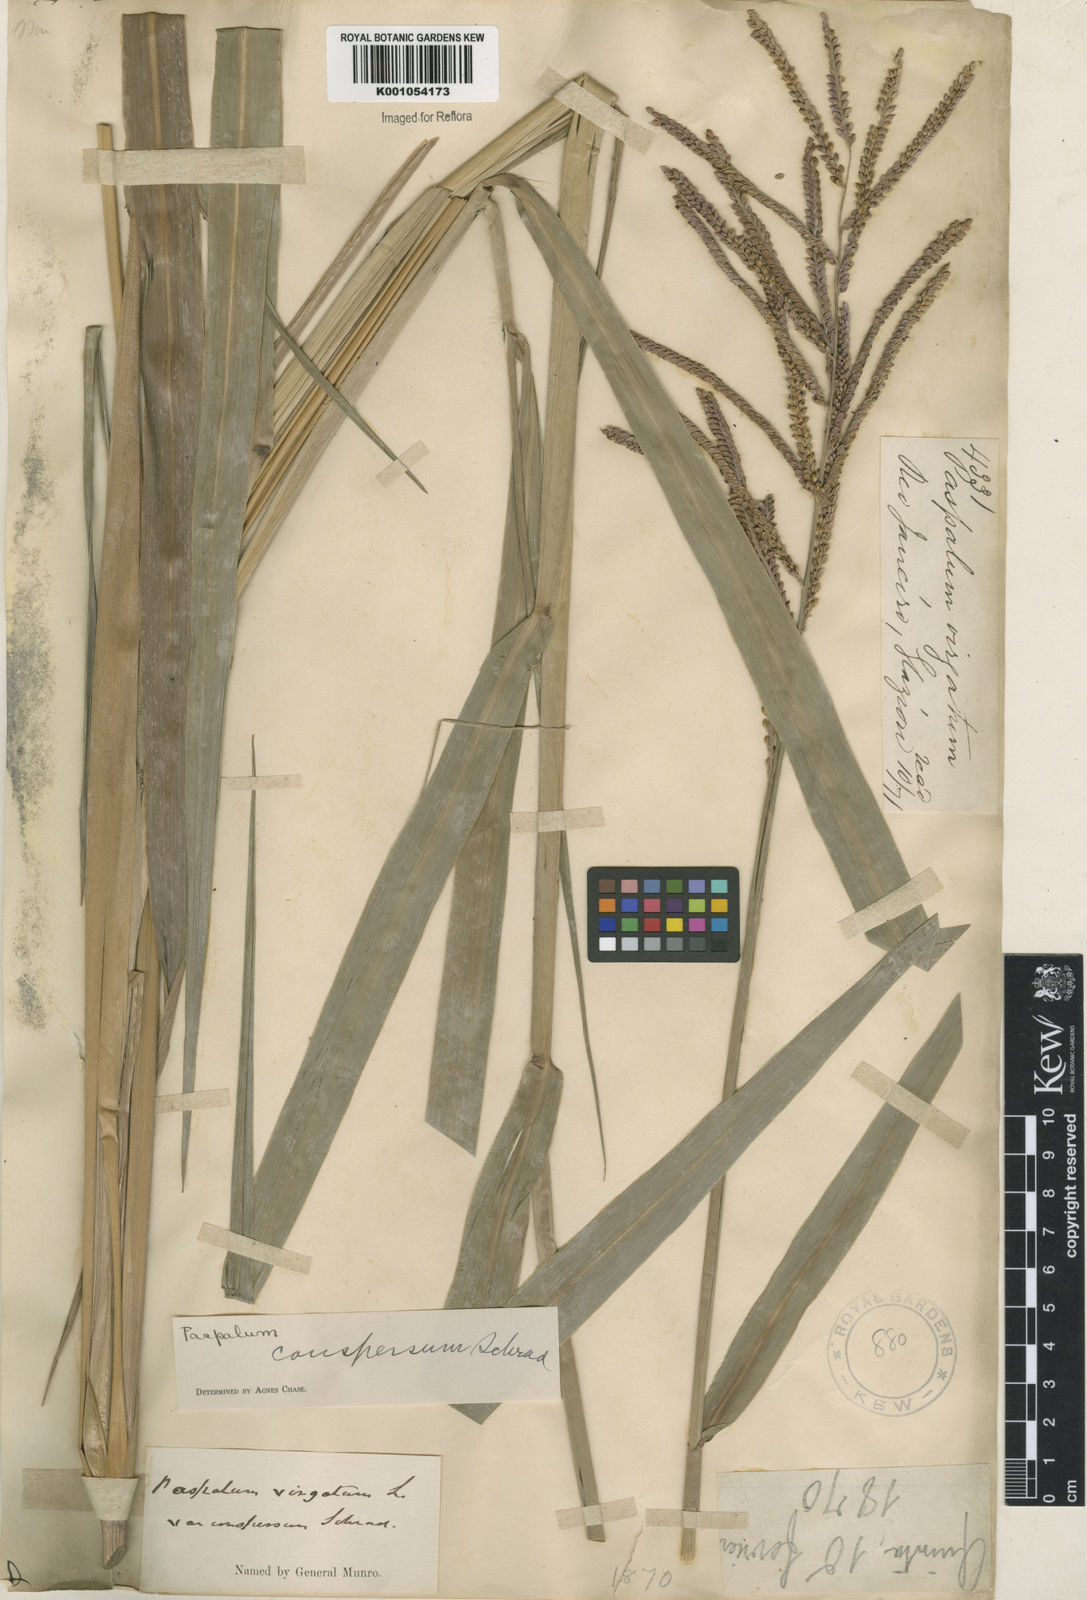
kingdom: Plantae
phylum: Tracheophyta
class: Liliopsida
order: Poales
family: Poaceae
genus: Paspalum
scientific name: Paspalum conspersum
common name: Scattered paspalum
